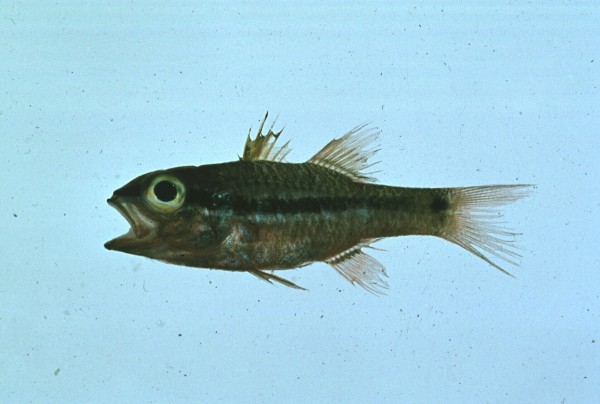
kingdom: Animalia
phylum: Chordata
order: Perciformes
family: Apogonidae
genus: Pristiapogon
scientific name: Pristiapogon kallopterus
